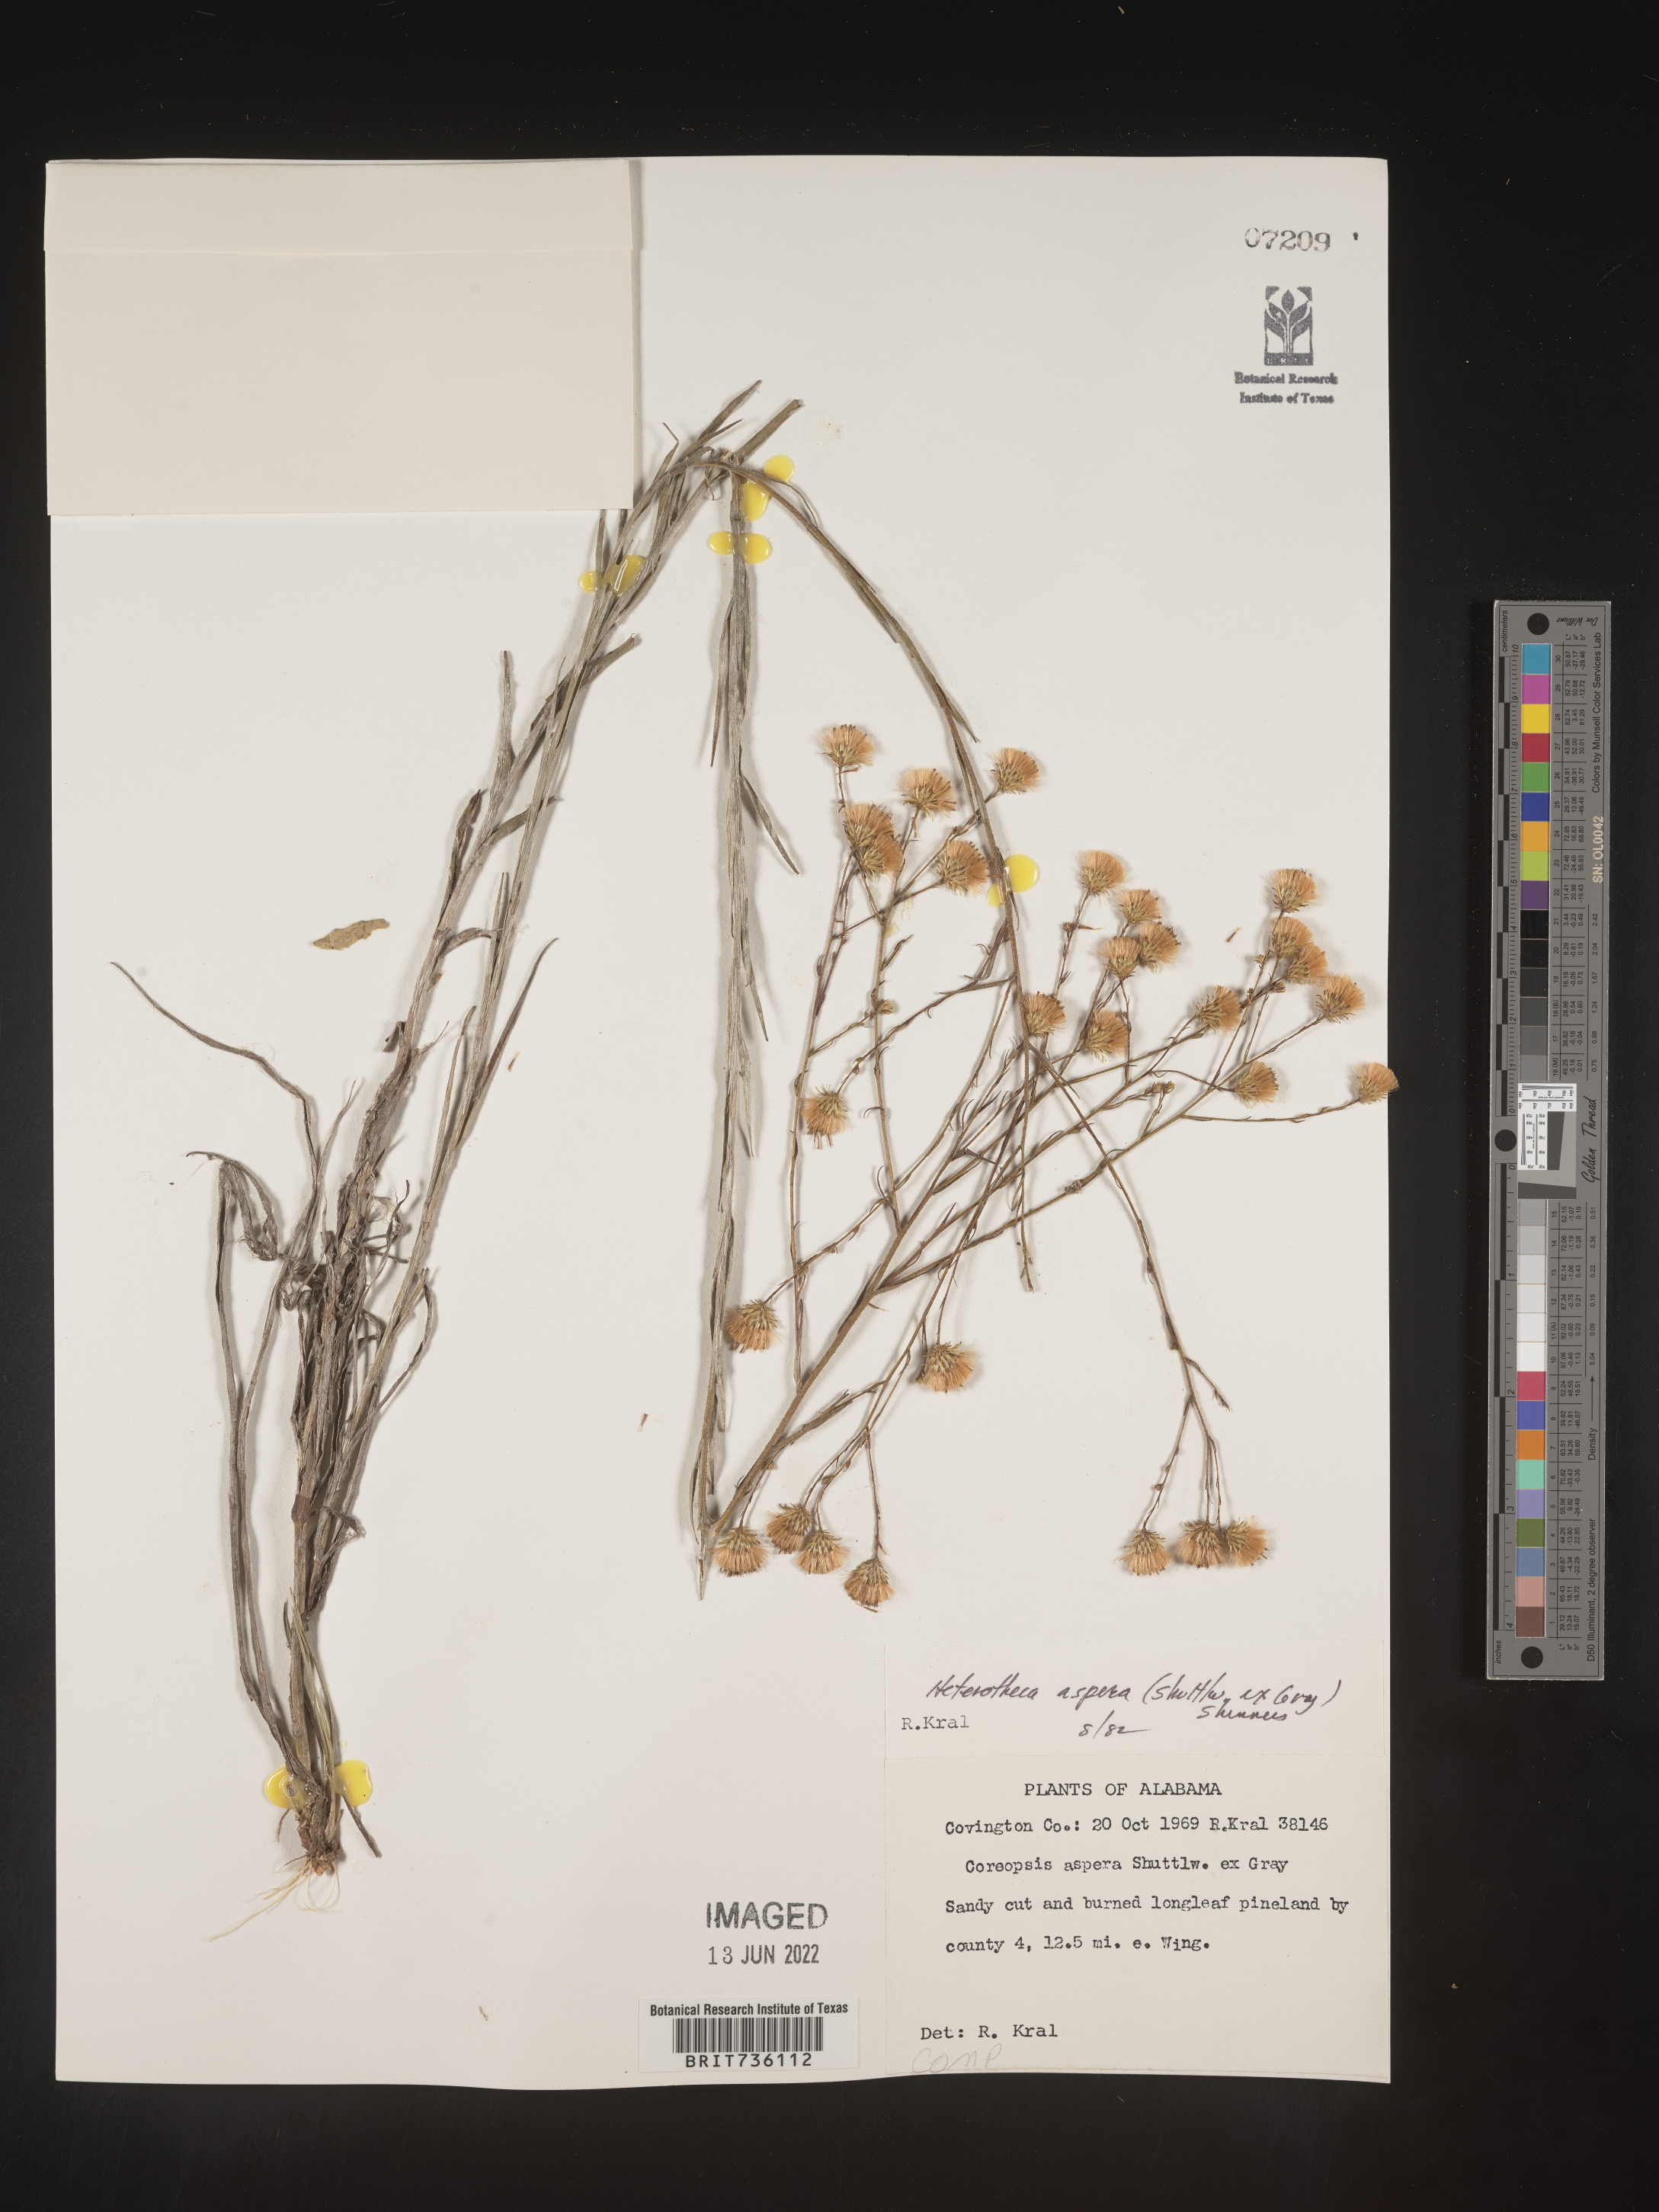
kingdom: Plantae
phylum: Tracheophyta
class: Magnoliopsida
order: Asterales
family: Asteraceae
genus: Pityopsis
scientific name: Pityopsis aspera
